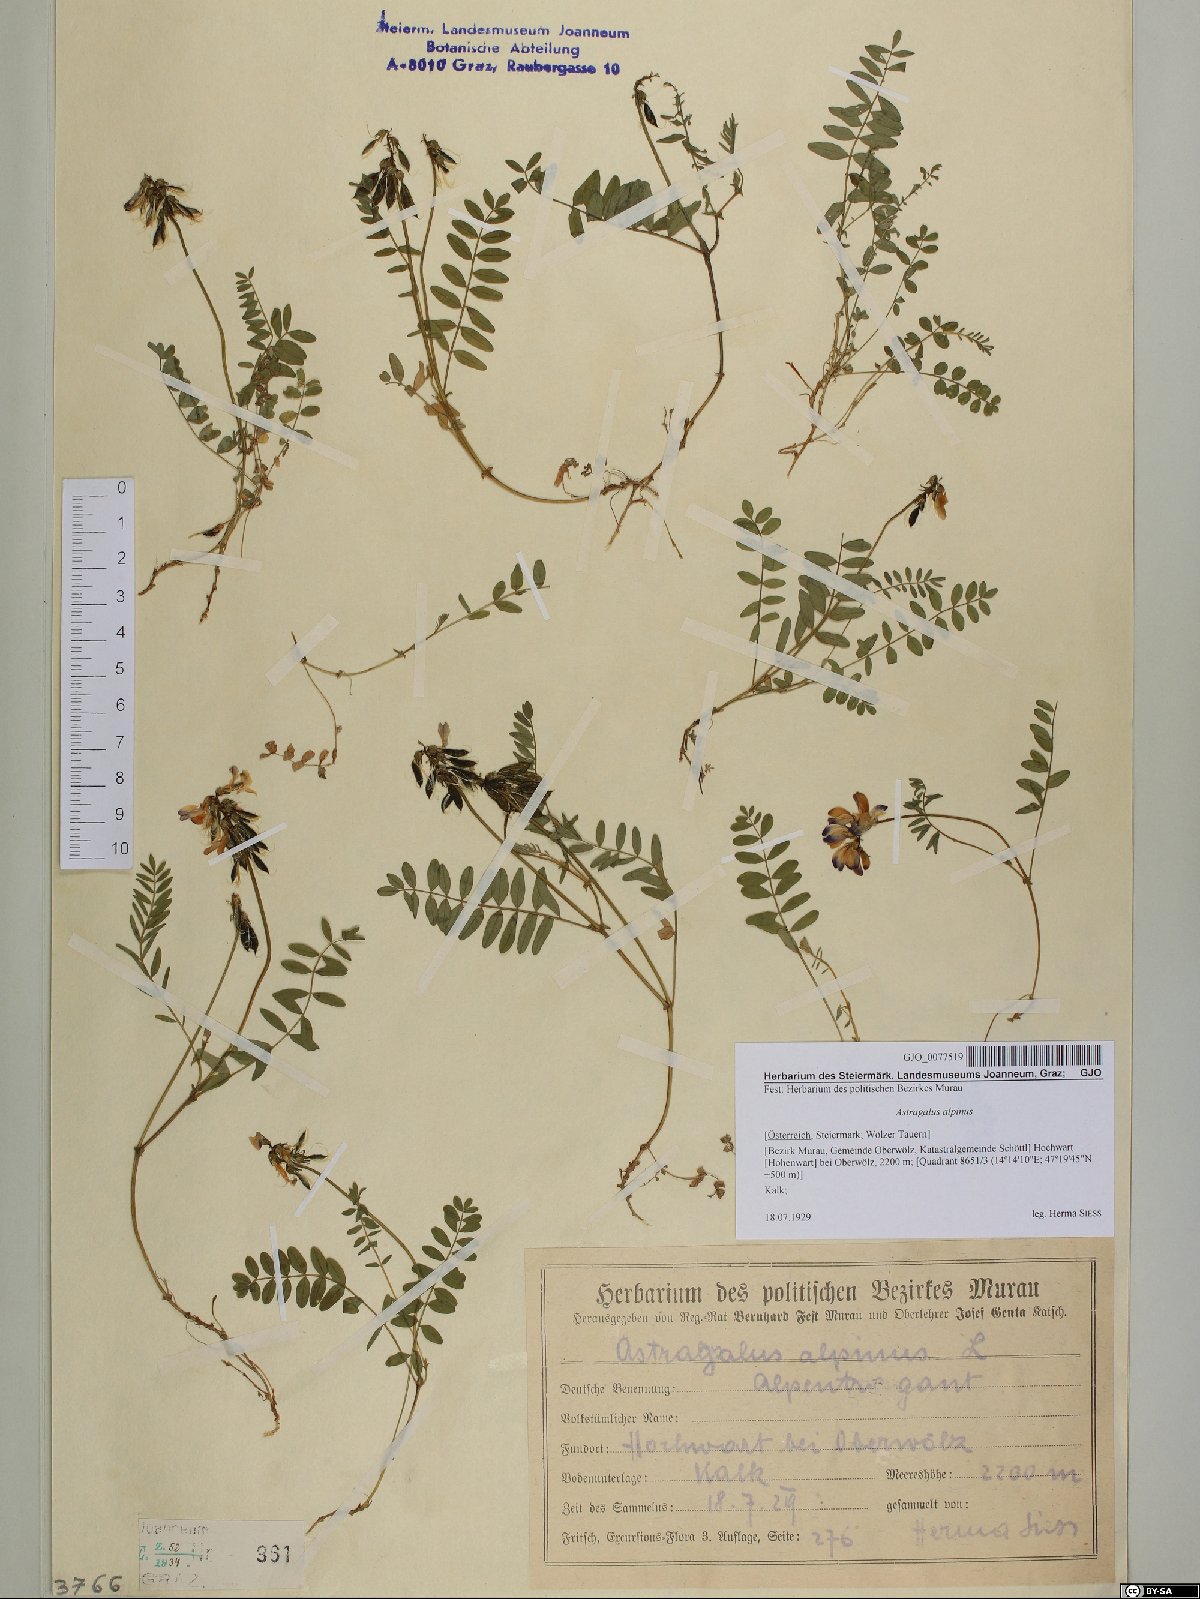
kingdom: Plantae
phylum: Tracheophyta
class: Magnoliopsida
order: Fabales
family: Fabaceae
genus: Astragalus
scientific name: Astragalus alpinus
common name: Alpine milk-vetch
